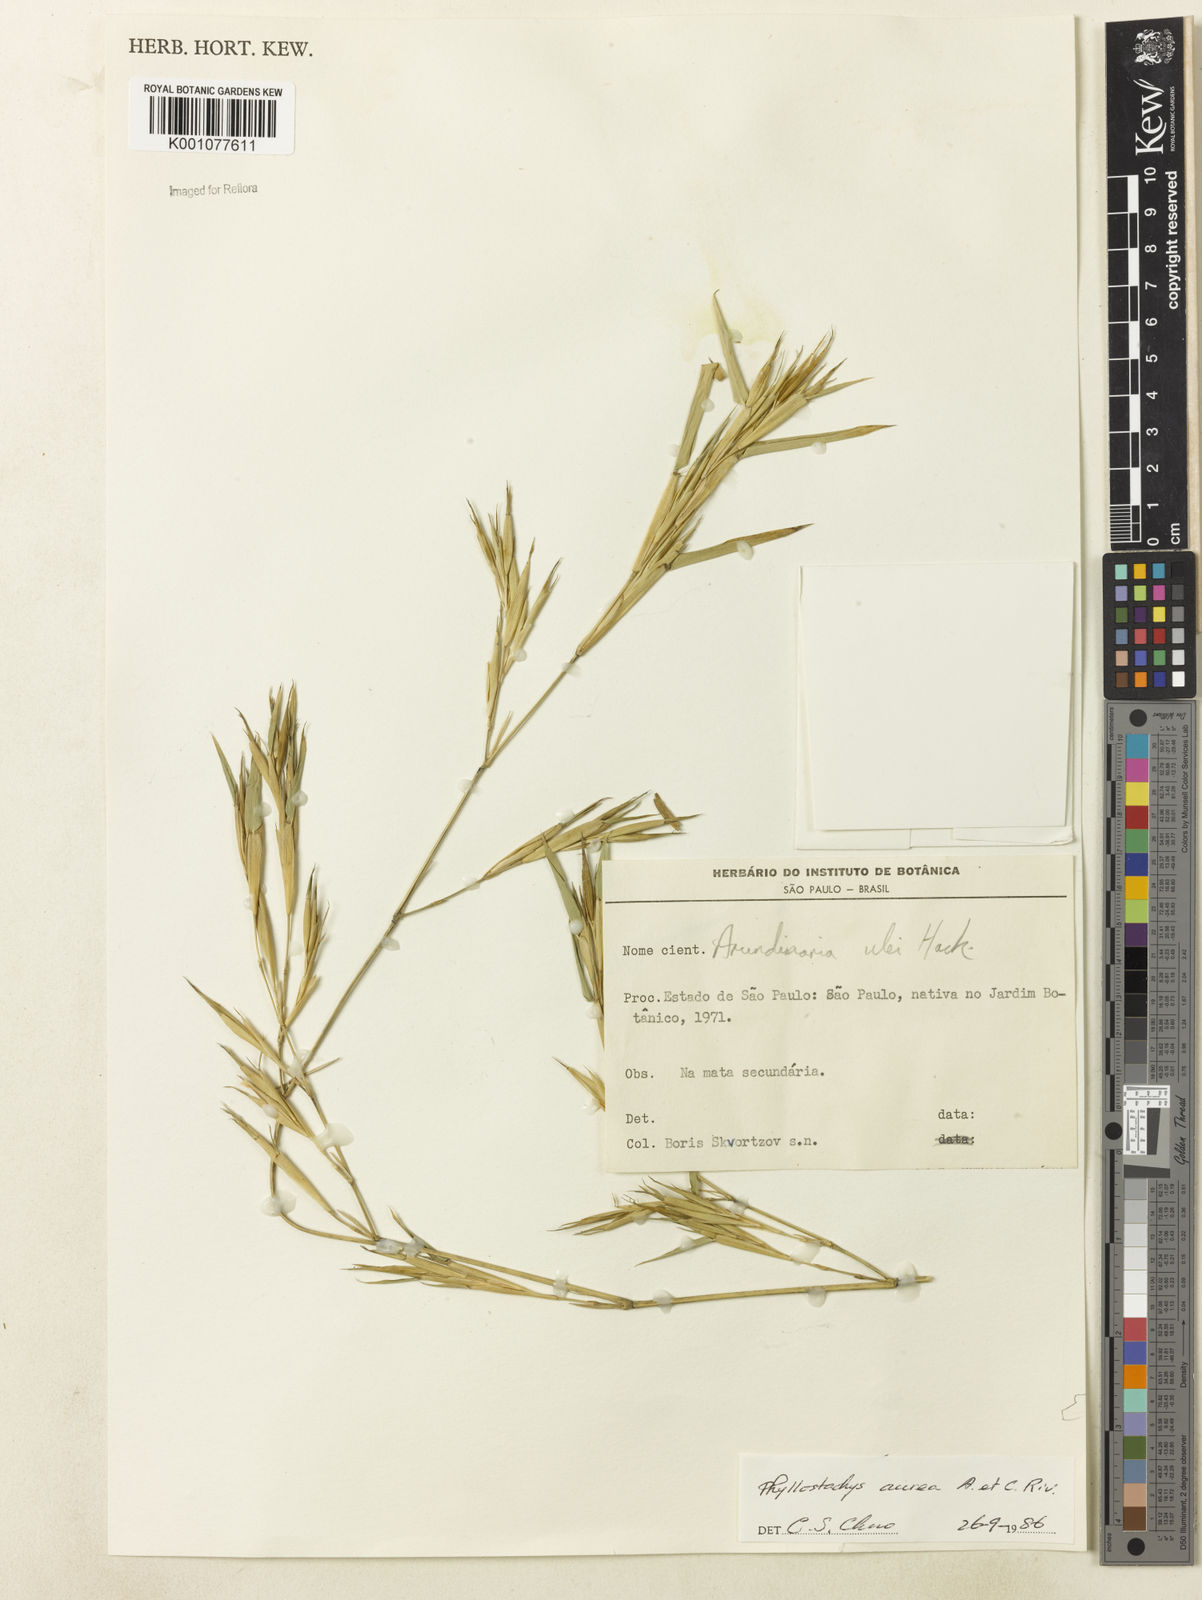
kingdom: Plantae
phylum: Tracheophyta
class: Liliopsida
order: Poales
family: Poaceae
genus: Phyllostachys
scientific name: Phyllostachys
